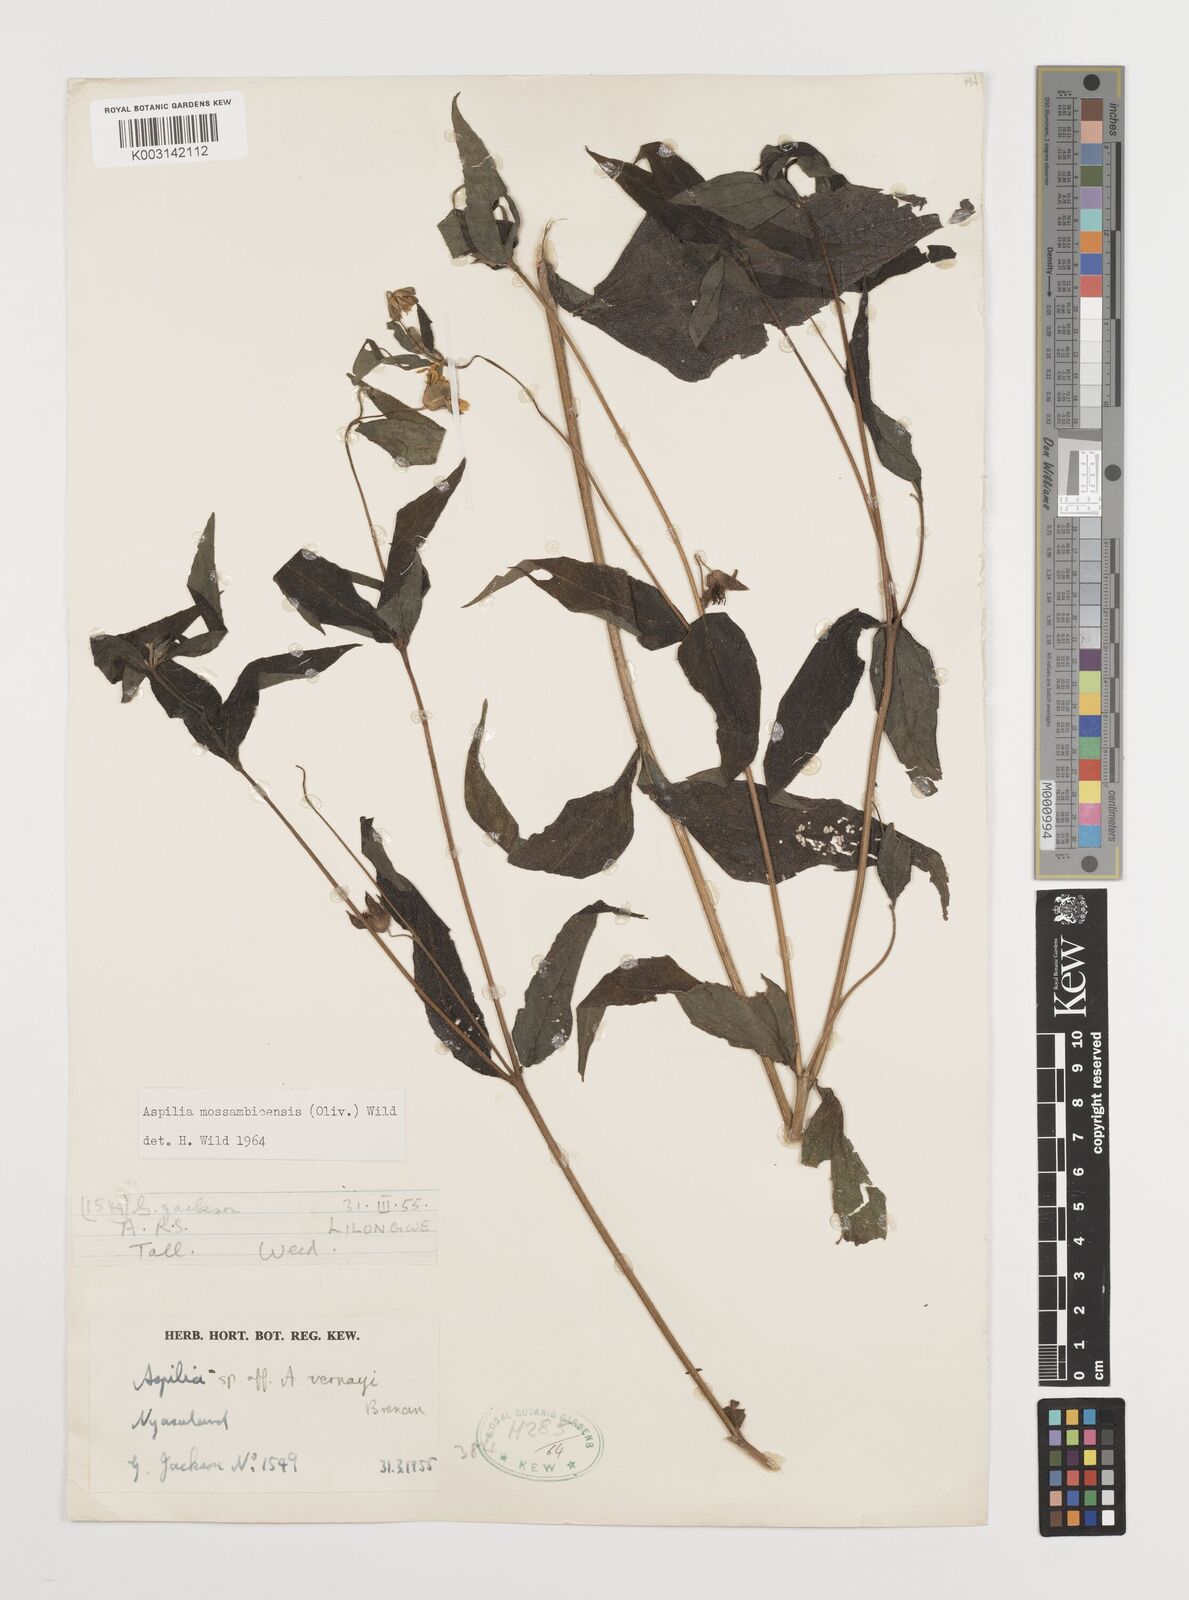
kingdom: Plantae
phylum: Tracheophyta
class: Magnoliopsida
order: Asterales
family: Asteraceae
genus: Aspilia
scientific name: Aspilia mossambicensis
